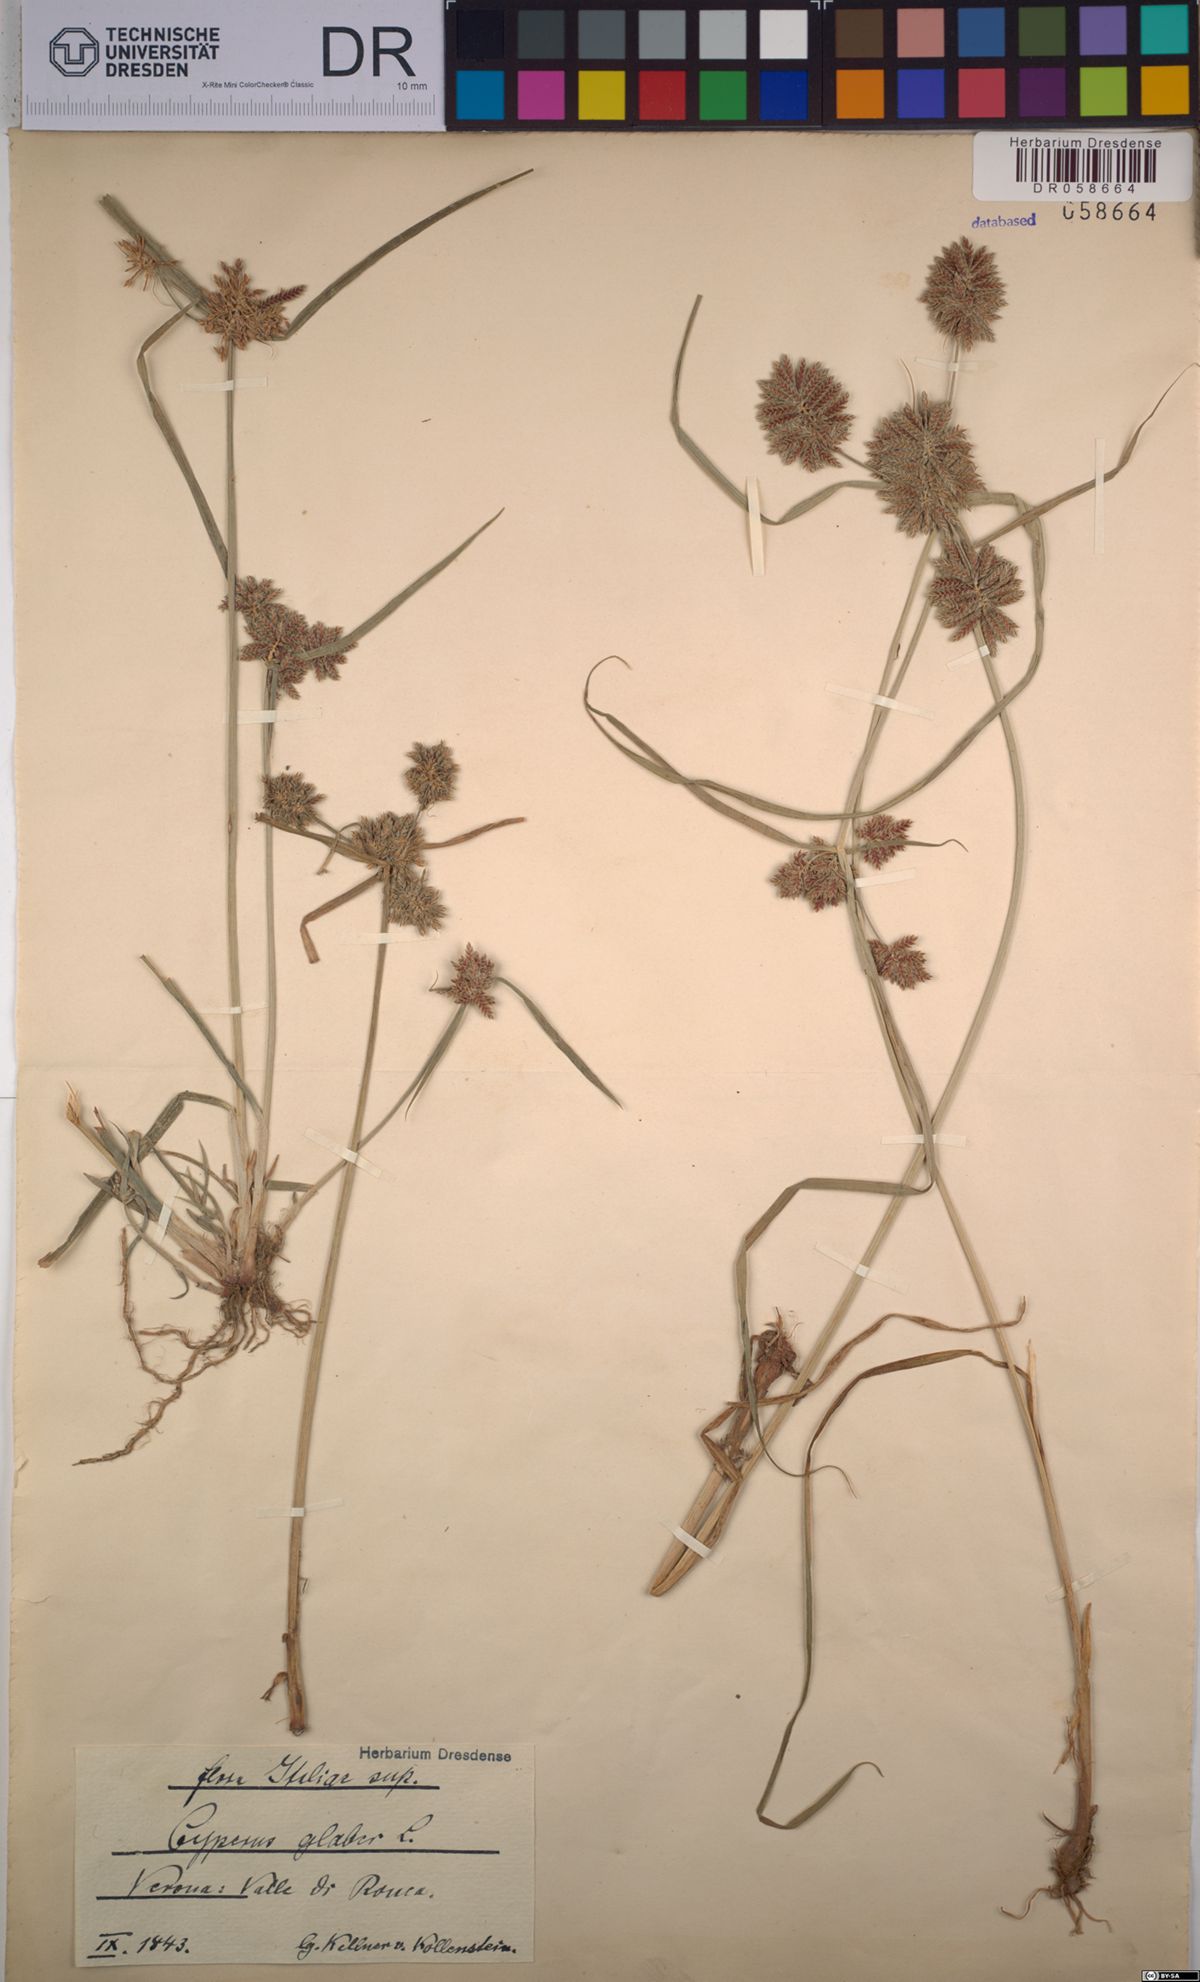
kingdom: Plantae
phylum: Tracheophyta
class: Liliopsida
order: Poales
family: Cyperaceae
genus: Cyperus
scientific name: Cyperus glaber
